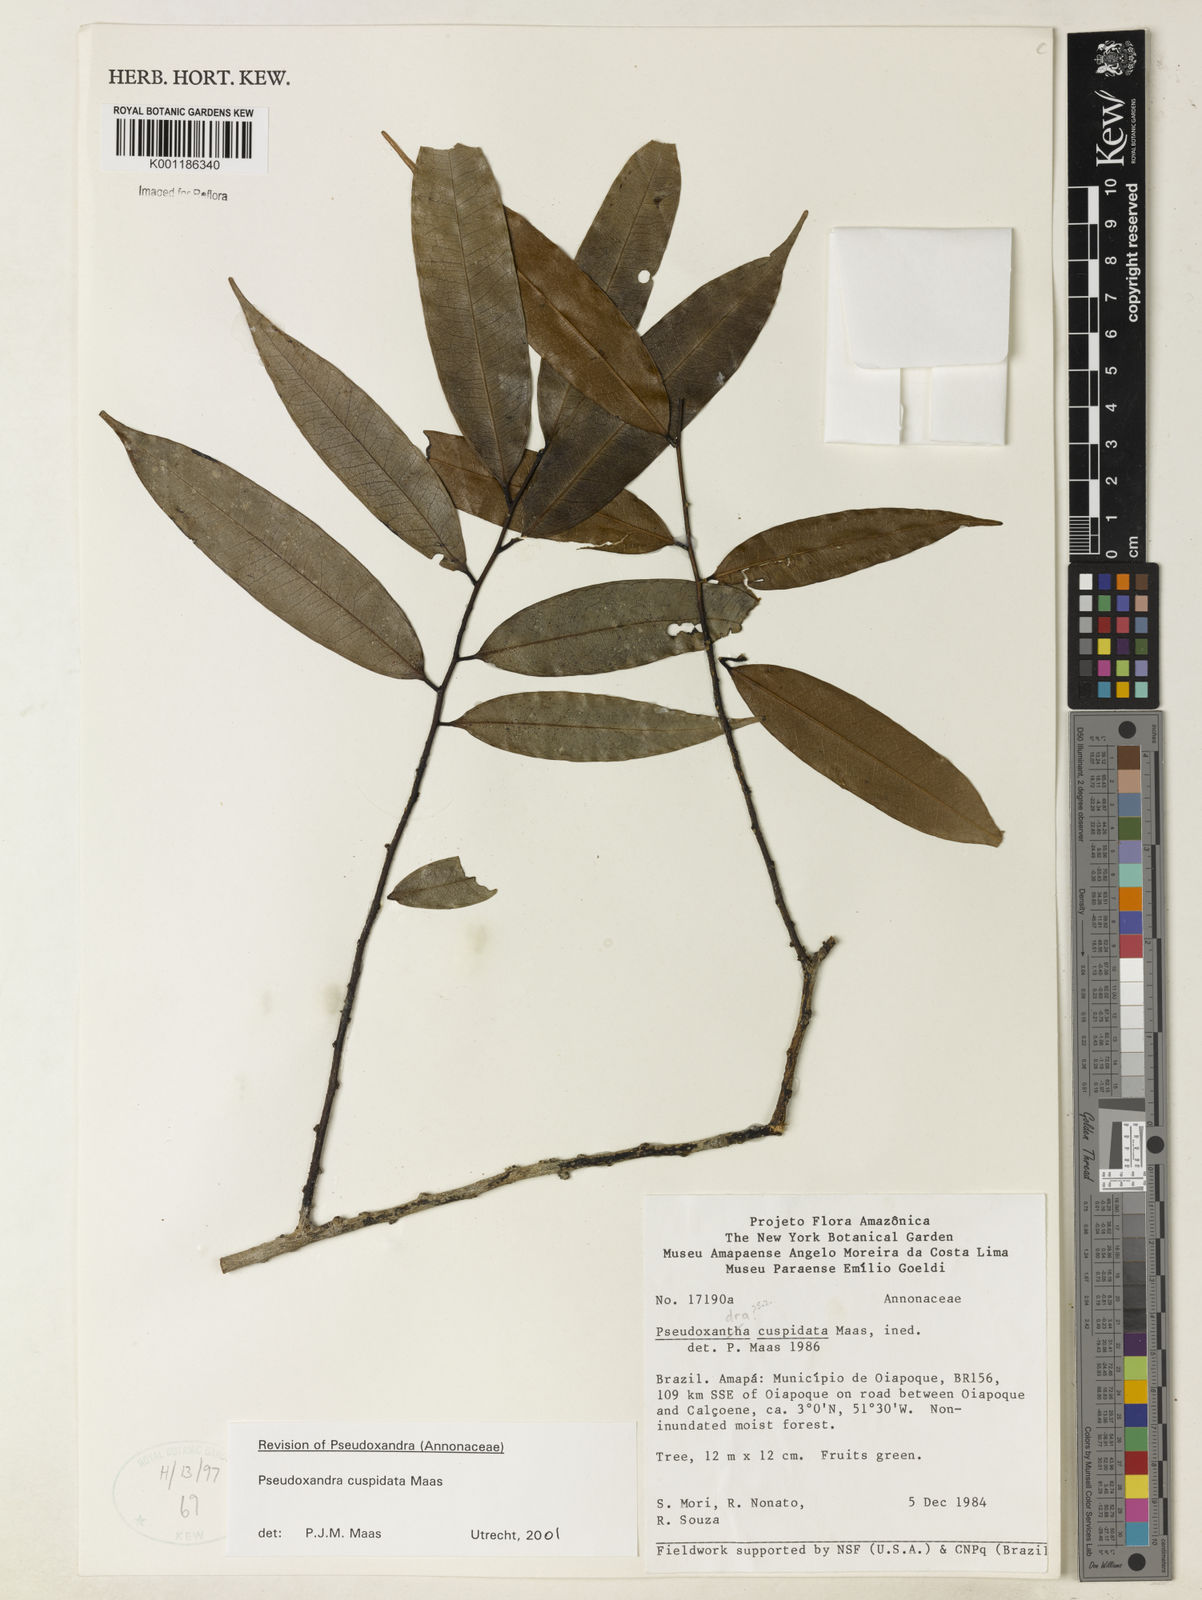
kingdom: Plantae
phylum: Tracheophyta
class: Magnoliopsida
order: Magnoliales
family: Annonaceae
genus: Pseudoxandra
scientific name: Pseudoxandra cuspidata
